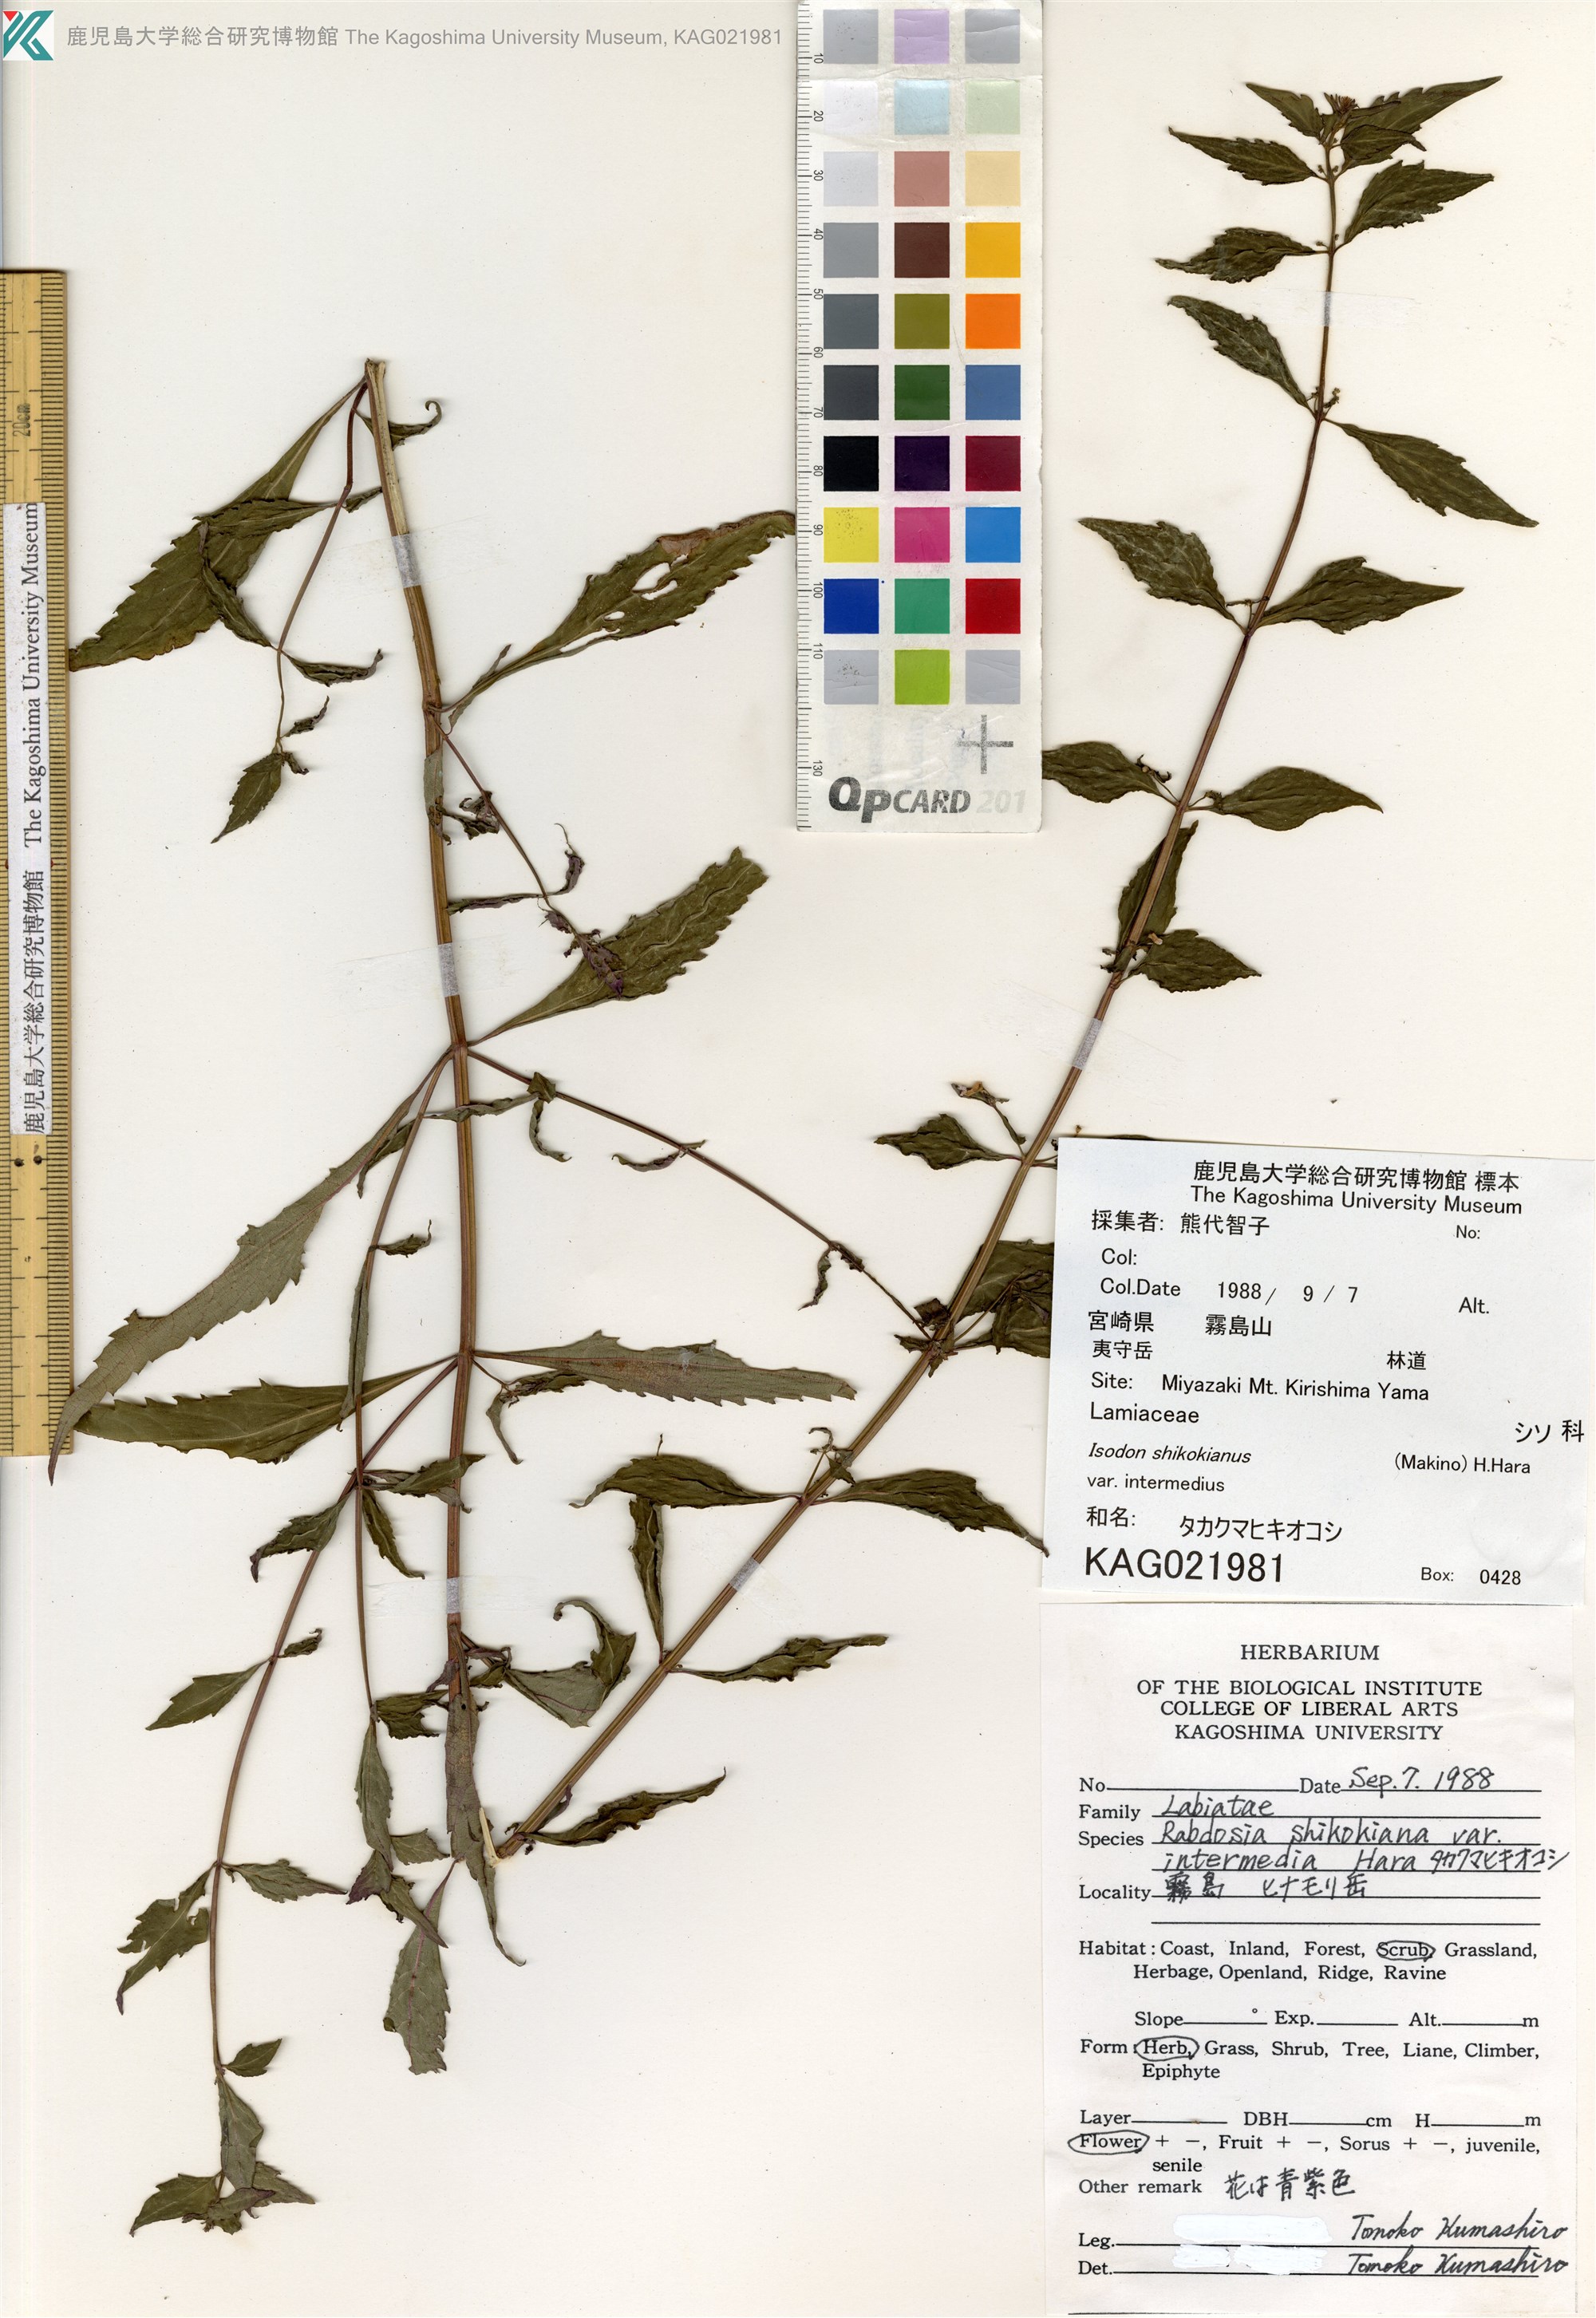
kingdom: Plantae
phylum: Tracheophyta
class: Magnoliopsida
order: Lamiales
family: Lamiaceae
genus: Isodon
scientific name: Isodon shikokianus
